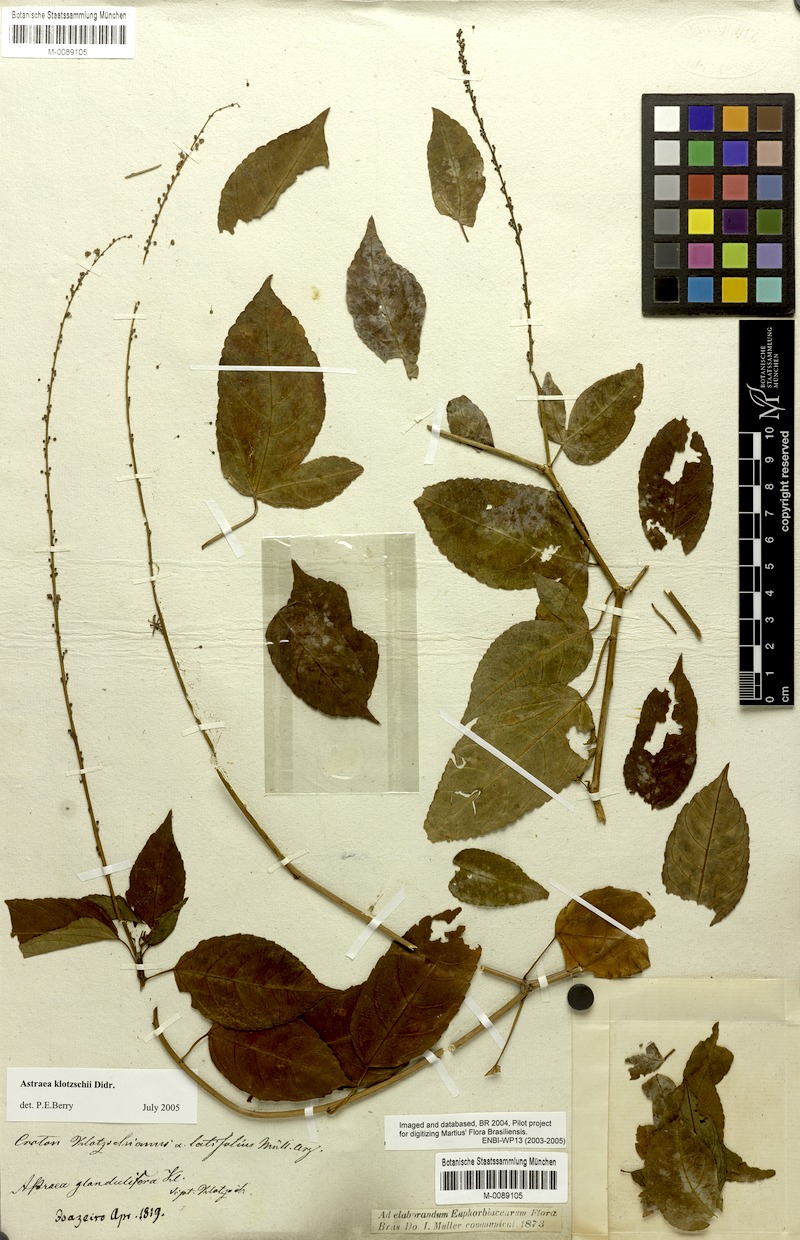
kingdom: Plantae
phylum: Tracheophyta
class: Magnoliopsida
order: Malpighiales
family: Euphorbiaceae
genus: Astraea
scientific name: Astraea macroura
